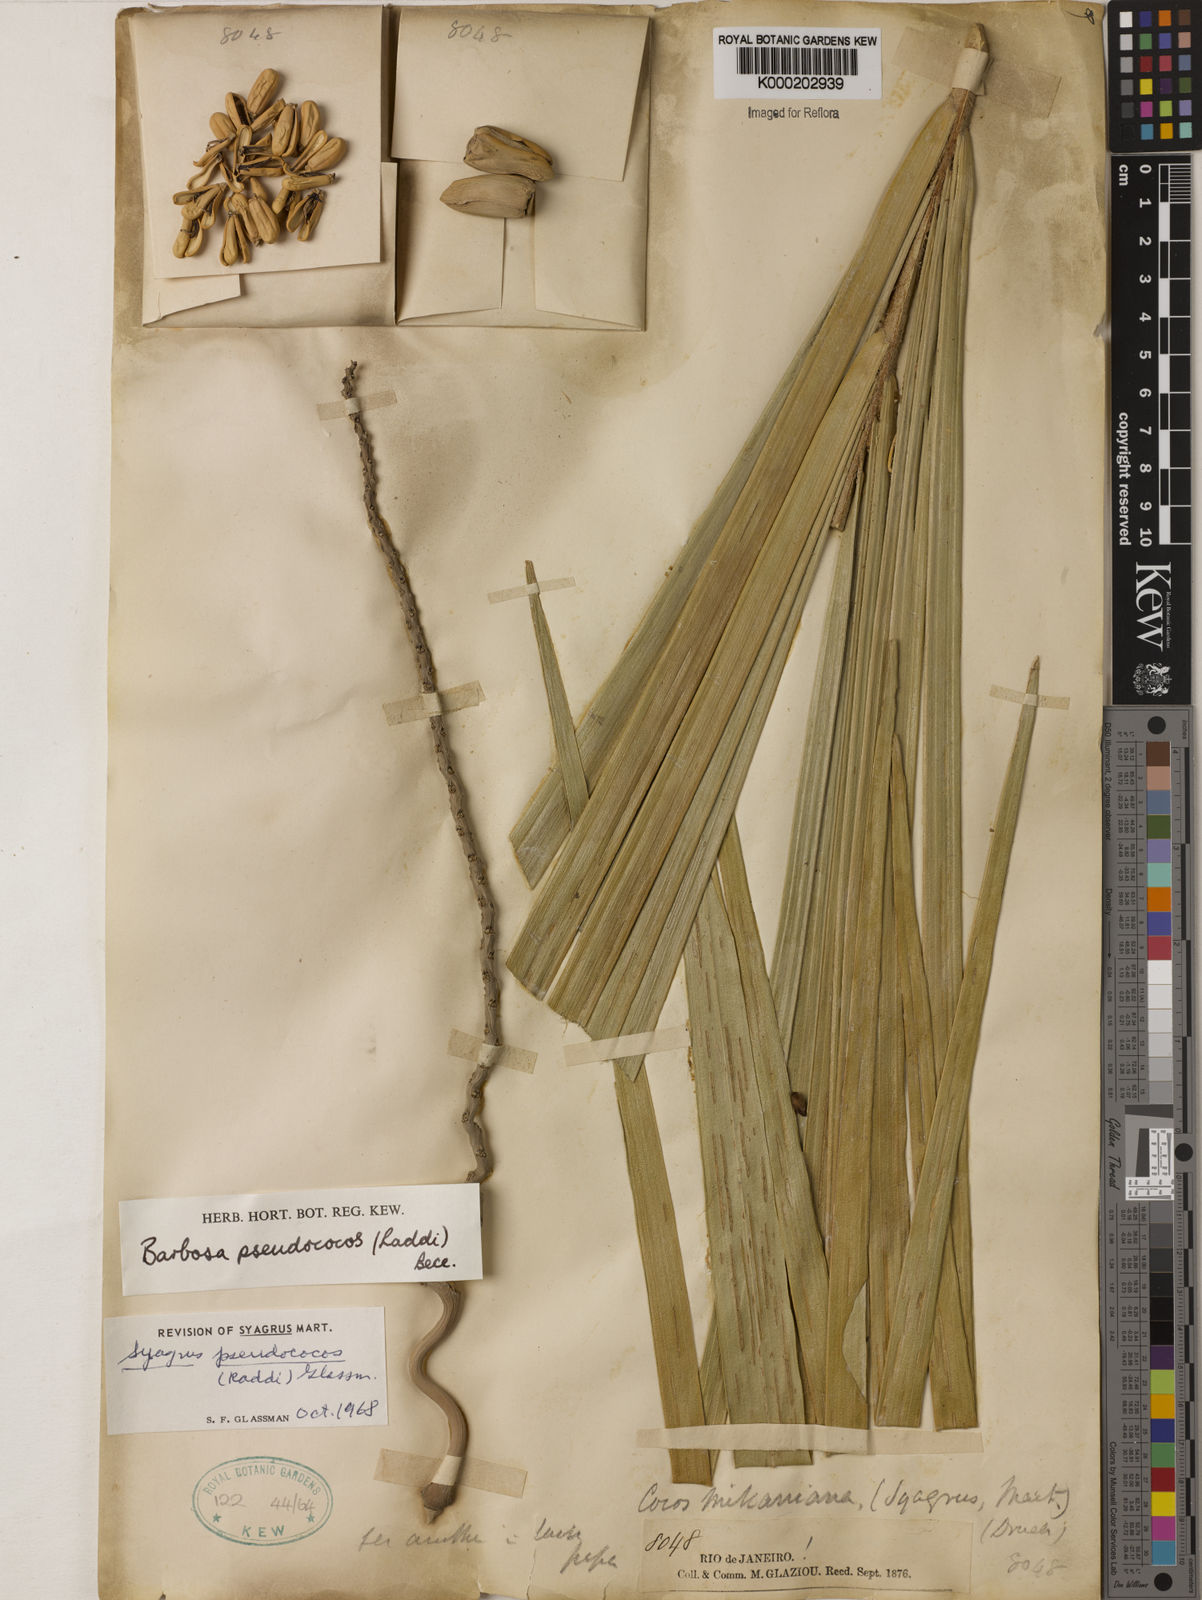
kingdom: Plantae
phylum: Tracheophyta
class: Liliopsida
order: Arecales
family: Arecaceae
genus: Syagrus
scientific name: Syagrus pseudococos
